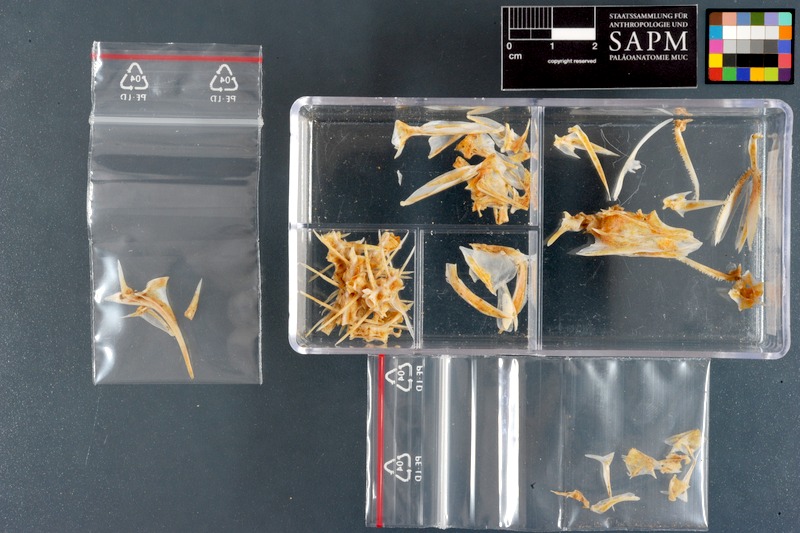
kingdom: Animalia
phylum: Chordata
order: Perciformes
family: Carangidae
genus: Scomberoides
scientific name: Scomberoides lysan
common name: Doublespotted queenfish
